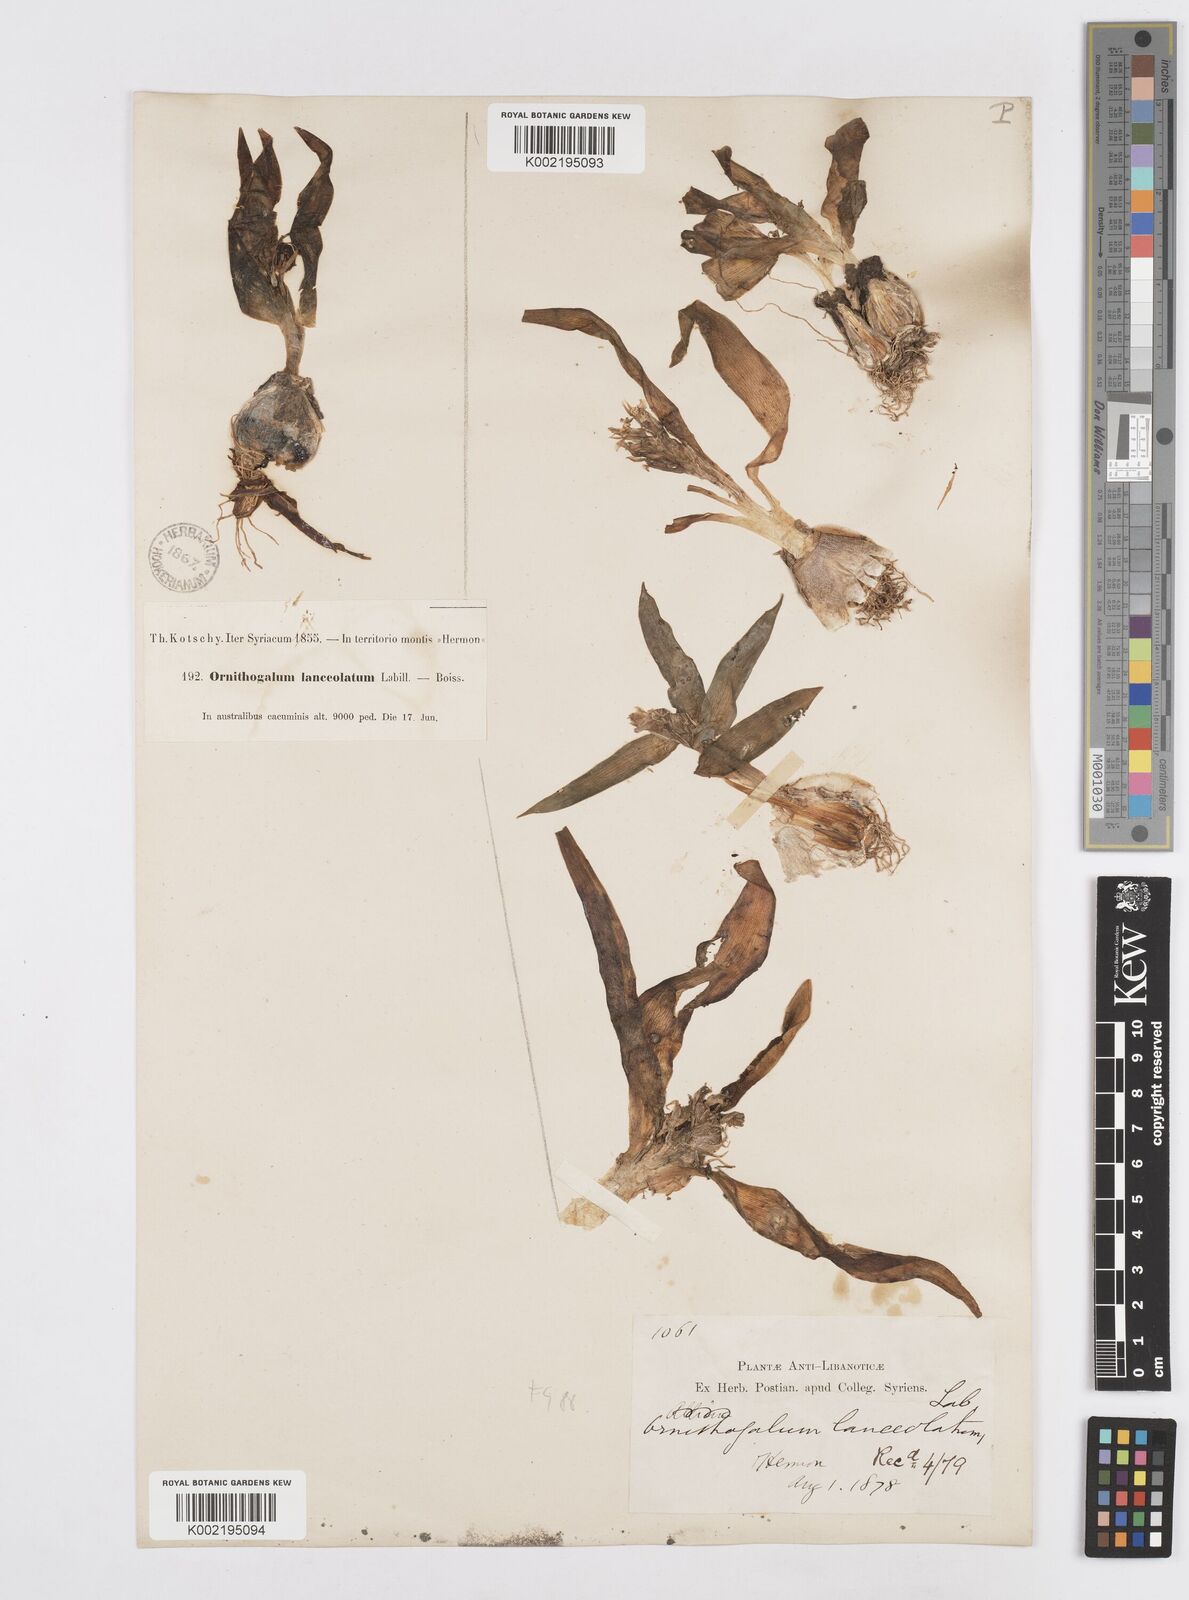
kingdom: Plantae
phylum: Tracheophyta
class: Liliopsida
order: Asparagales
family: Asparagaceae
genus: Ornithogalum
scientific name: Ornithogalum lanceolatum
